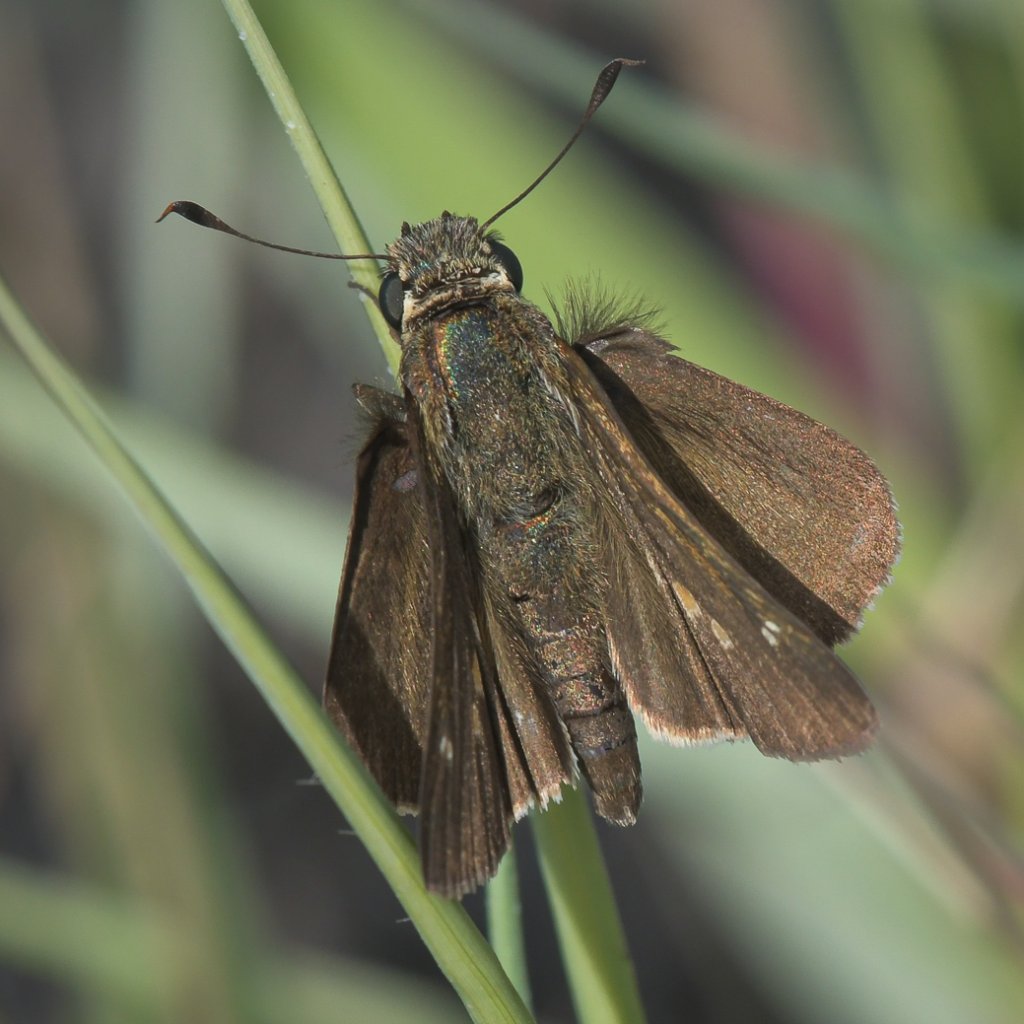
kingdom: Animalia
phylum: Arthropoda
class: Insecta
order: Lepidoptera
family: Hesperiidae
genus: Panoquina
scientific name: Panoquina errans
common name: Wandering Skipper
